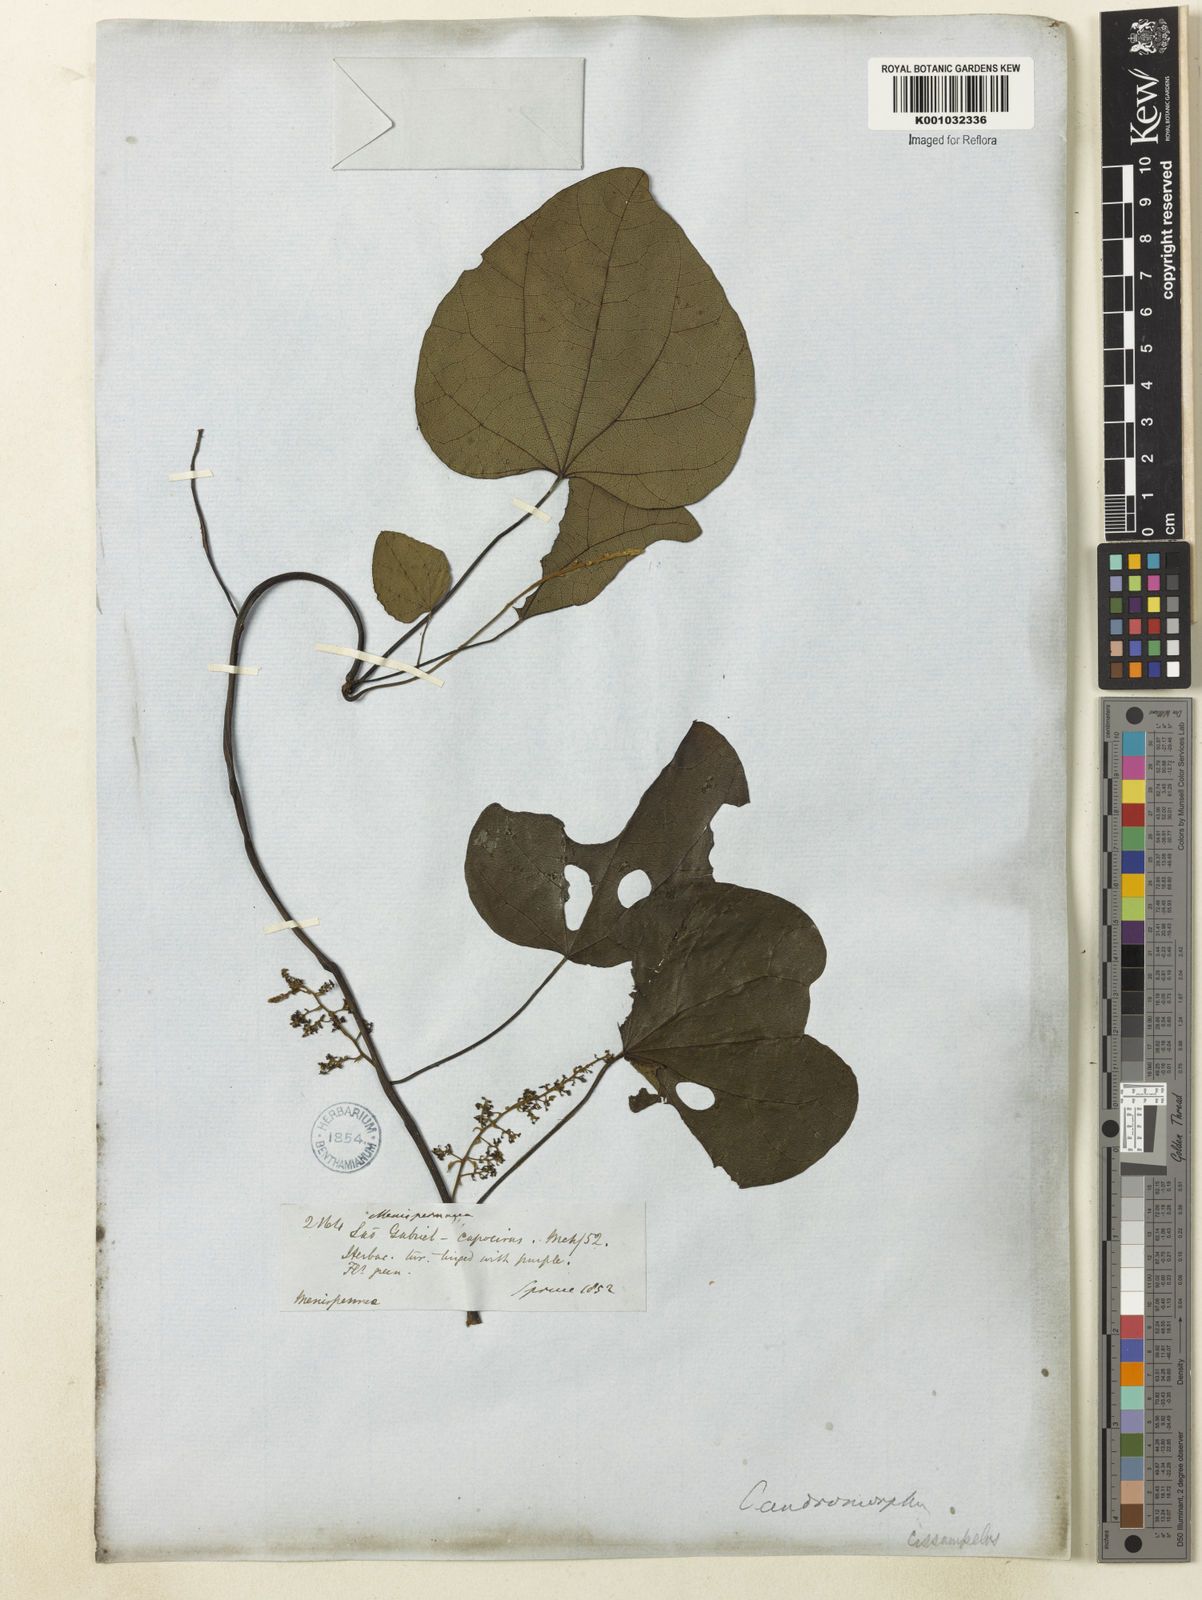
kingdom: Plantae
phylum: Tracheophyta
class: Magnoliopsida
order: Ranunculales
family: Menispermaceae
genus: Cissampelos
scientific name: Cissampelos fasciculata
